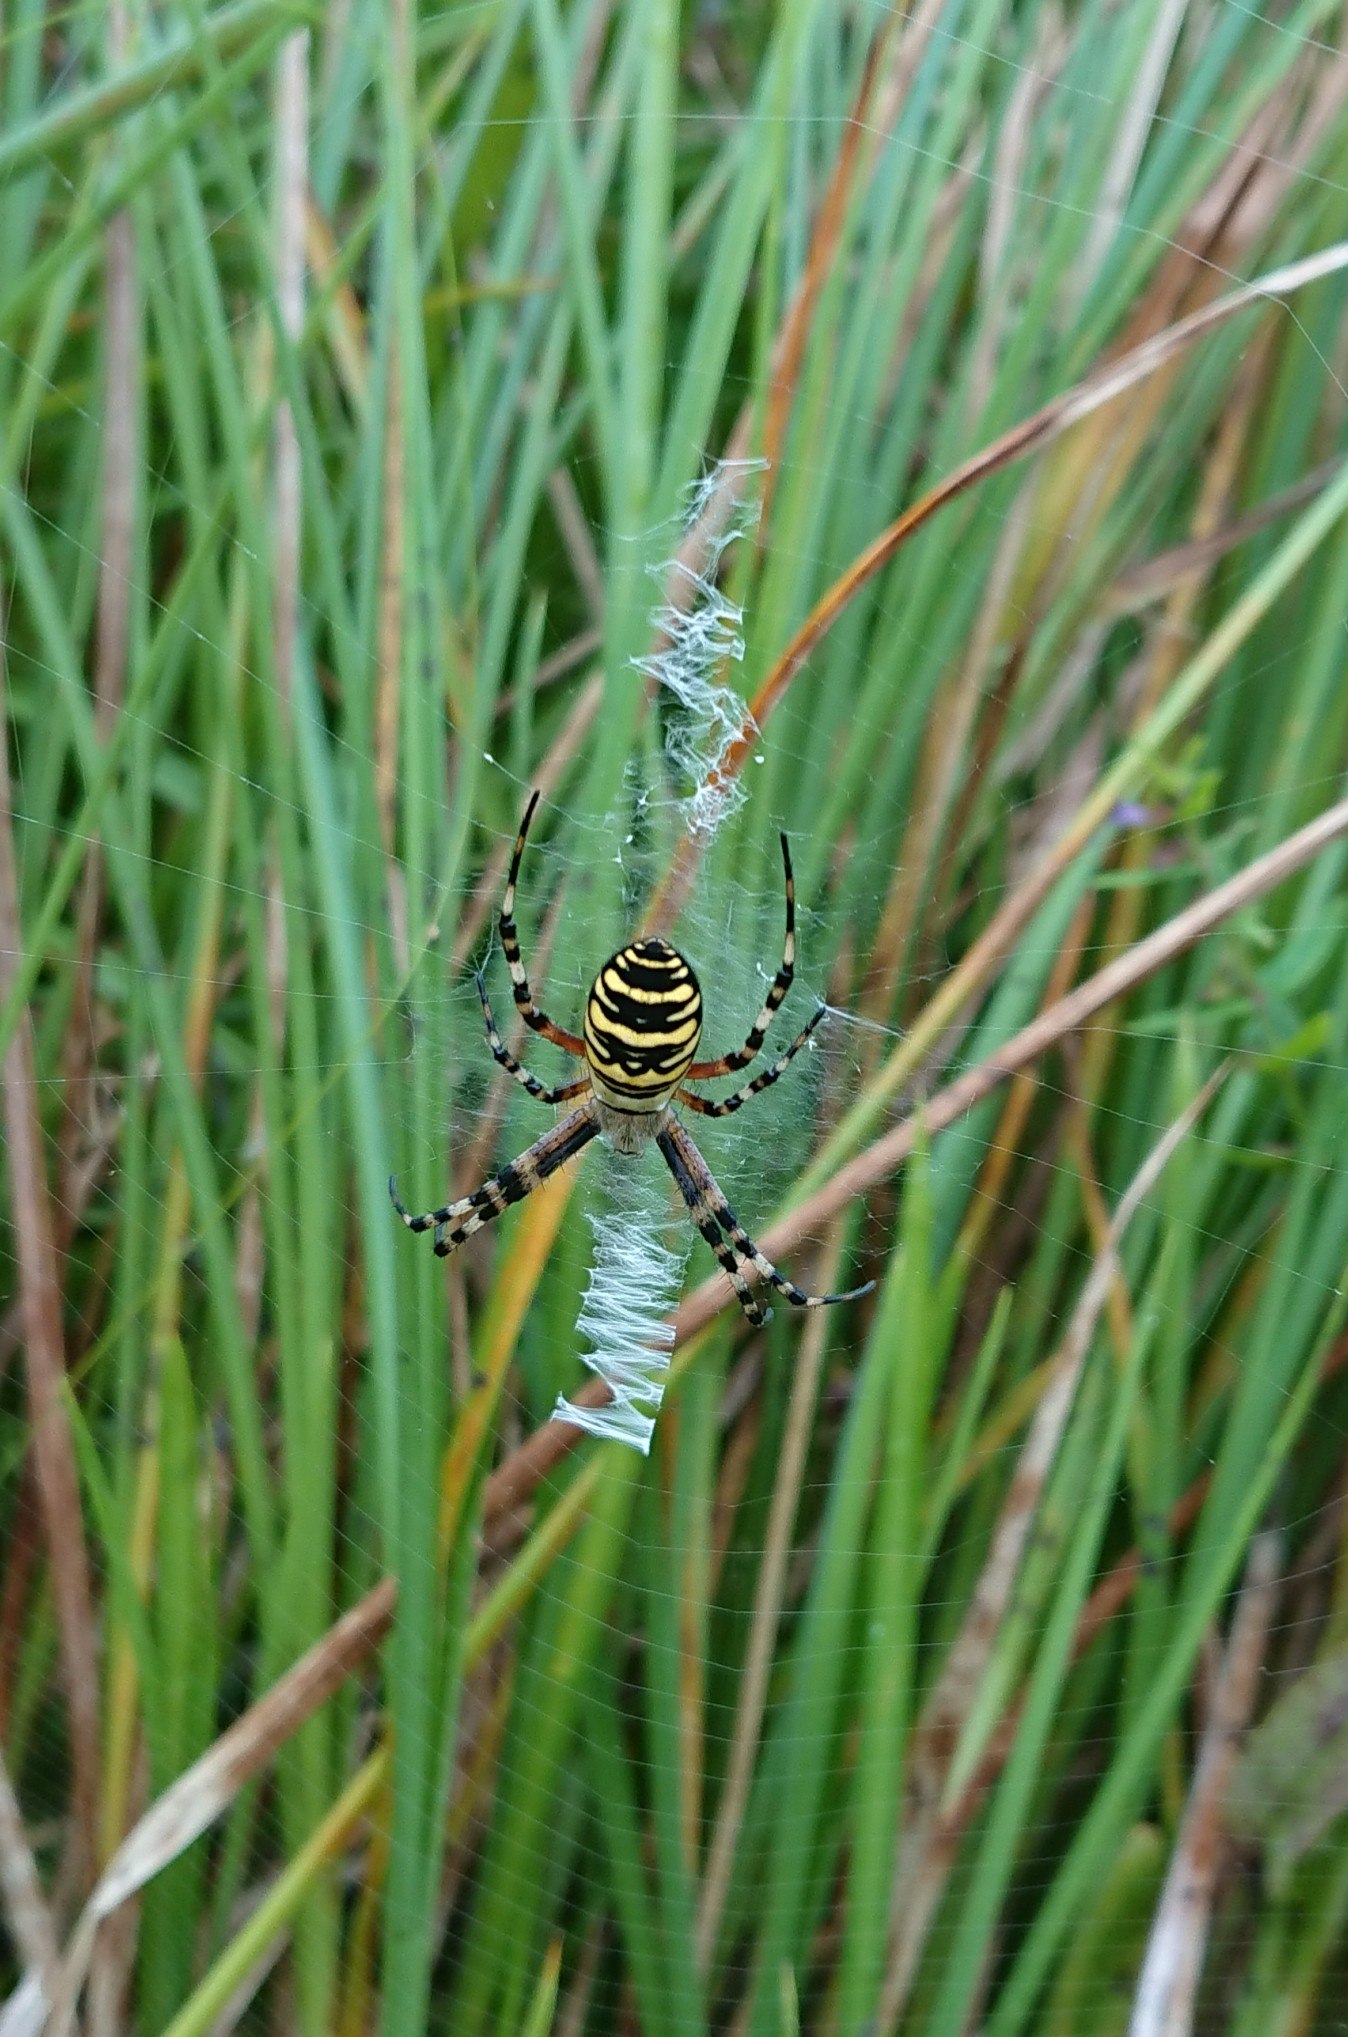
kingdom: Animalia
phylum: Arthropoda
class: Arachnida
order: Araneae
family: Araneidae
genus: Argiope
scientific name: Argiope bruennichi
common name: Hvepseedderkop
